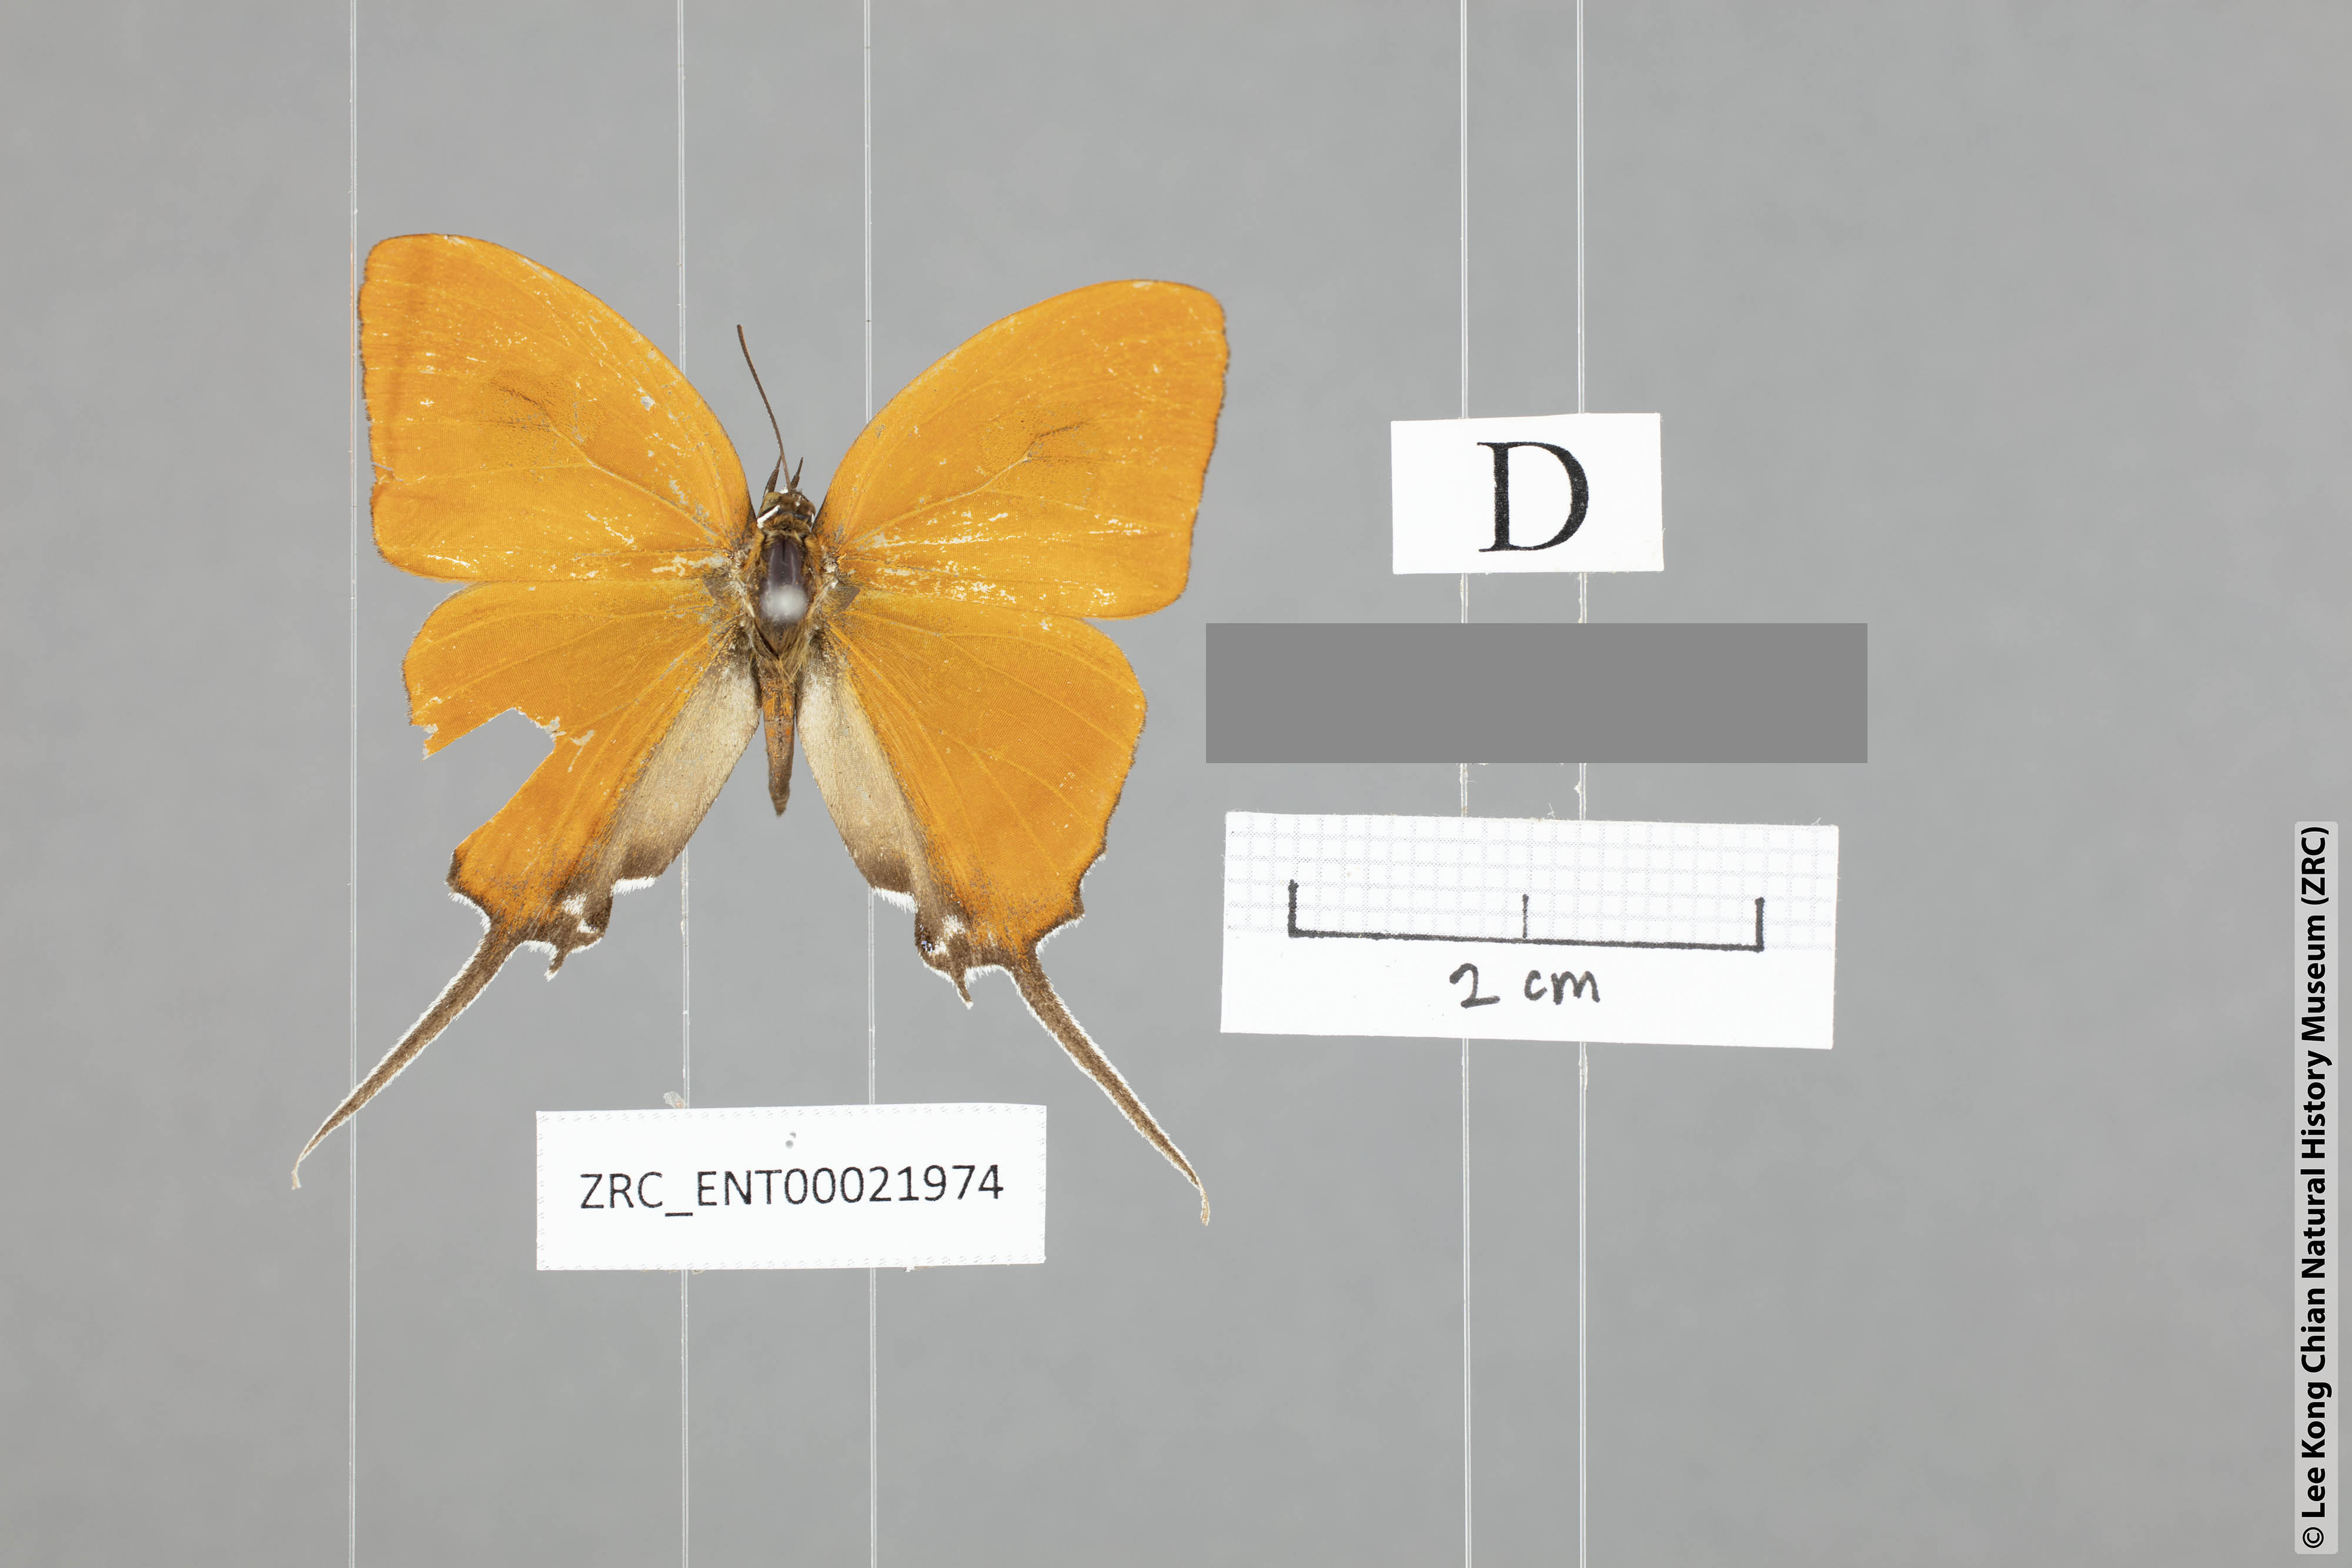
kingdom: Animalia
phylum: Arthropoda
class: Insecta
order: Lepidoptera
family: Lycaenidae
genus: Ritra
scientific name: Ritra aurea
